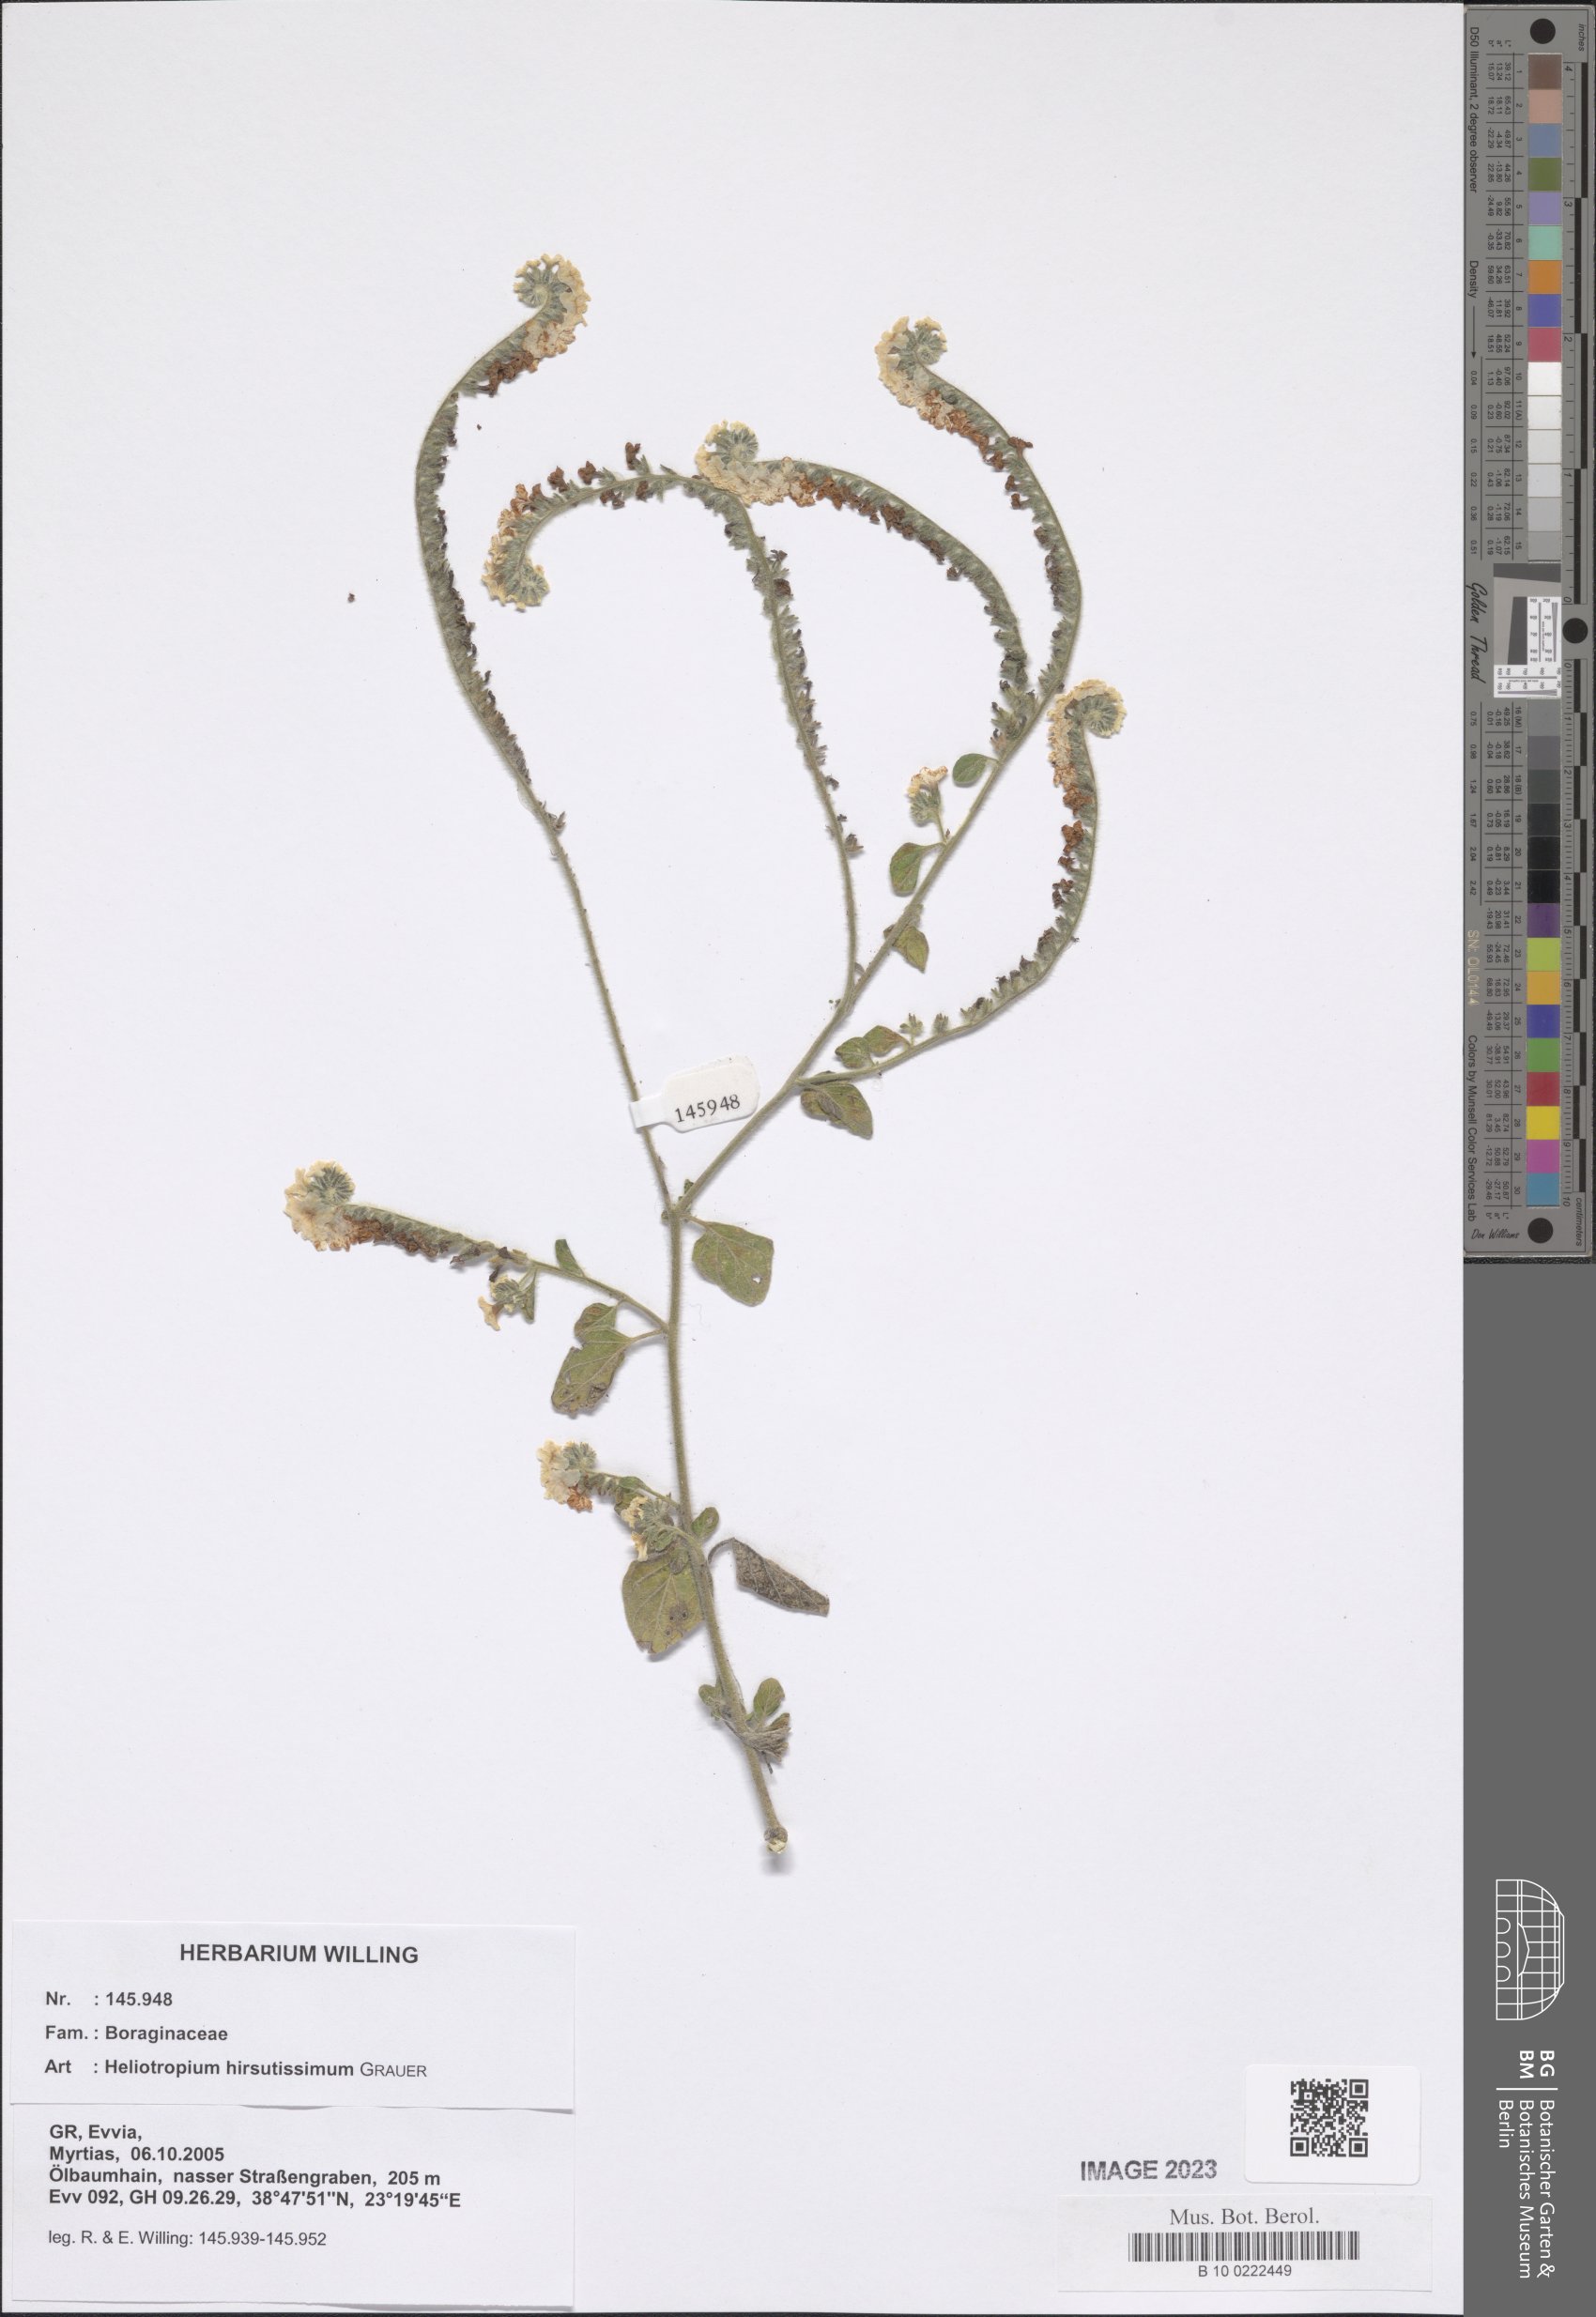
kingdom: Plantae
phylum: Tracheophyta
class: Magnoliopsida
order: Boraginales
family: Heliotropiaceae
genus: Heliotropium
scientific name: Heliotropium hirsutissimum
